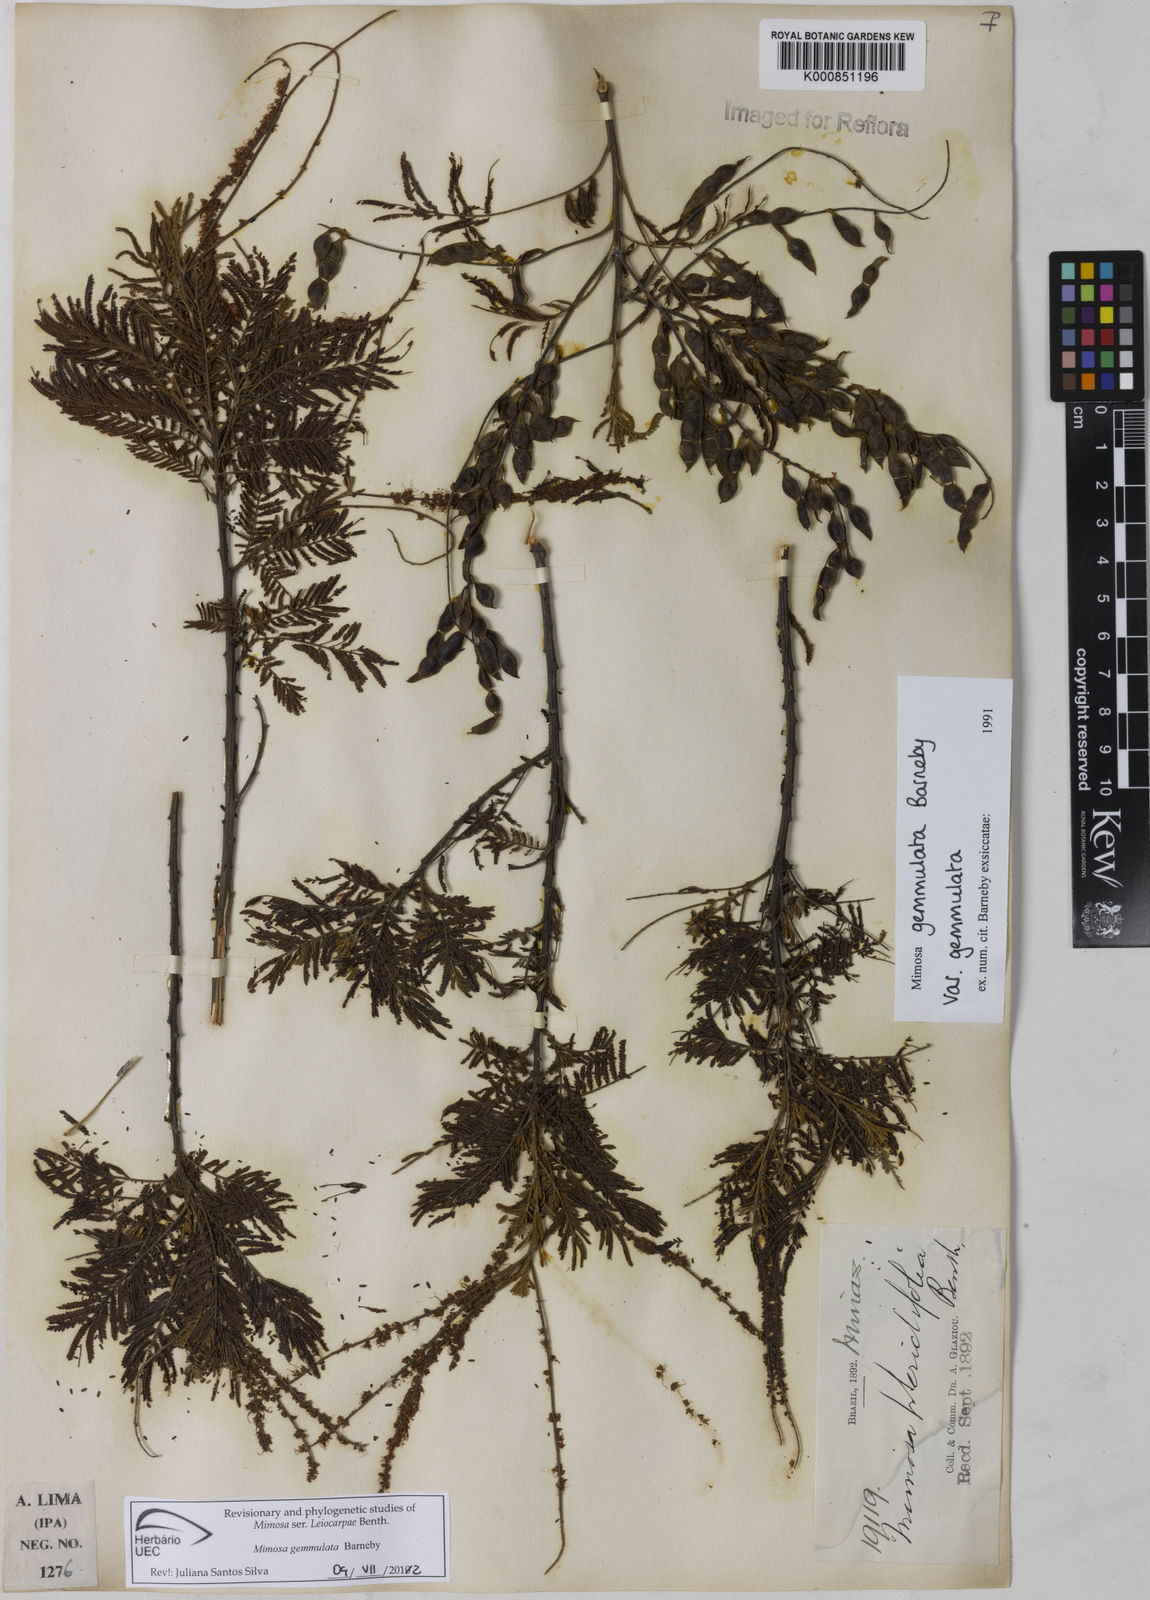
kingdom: Plantae
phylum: Tracheophyta
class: Magnoliopsida
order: Fabales
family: Fabaceae
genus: Mimosa
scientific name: Mimosa gemmulata
